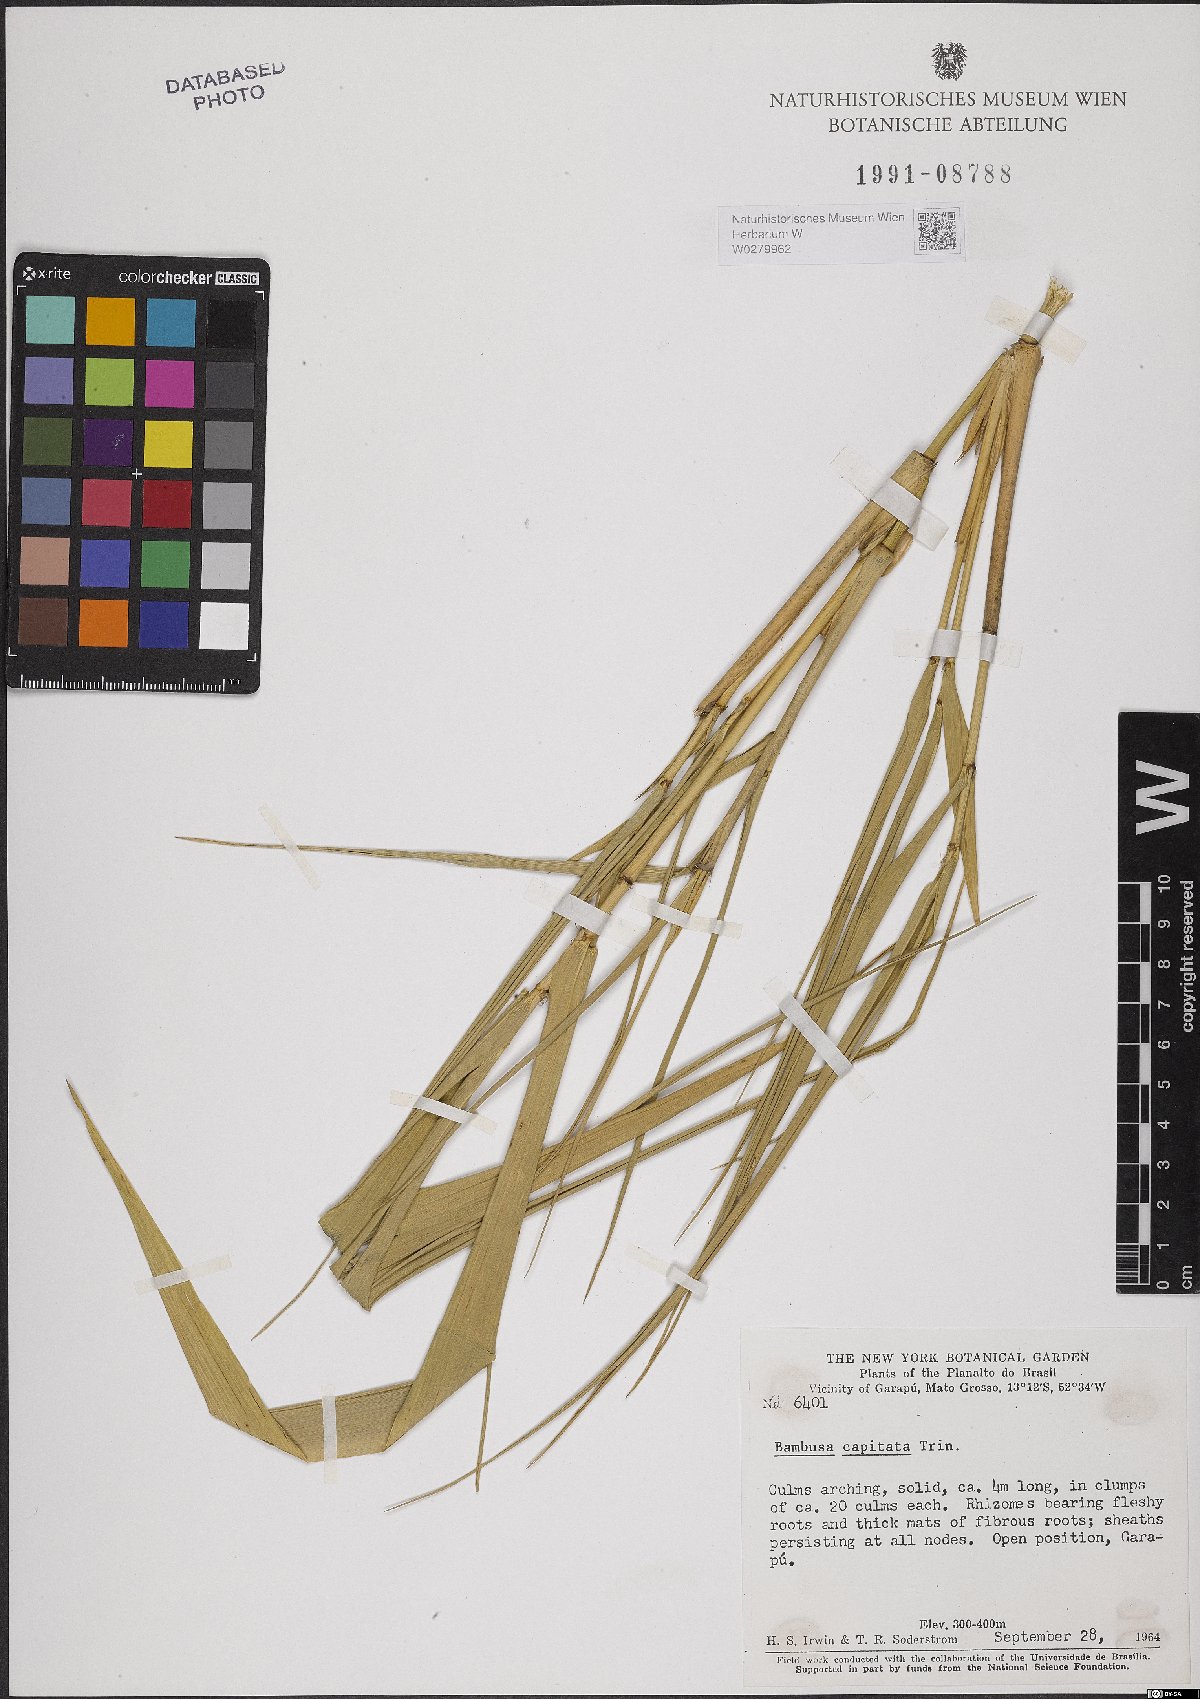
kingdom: Plantae
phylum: Tracheophyta
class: Liliopsida
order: Poales
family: Poaceae
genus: Eremocaulon
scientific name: Eremocaulon capitatum
